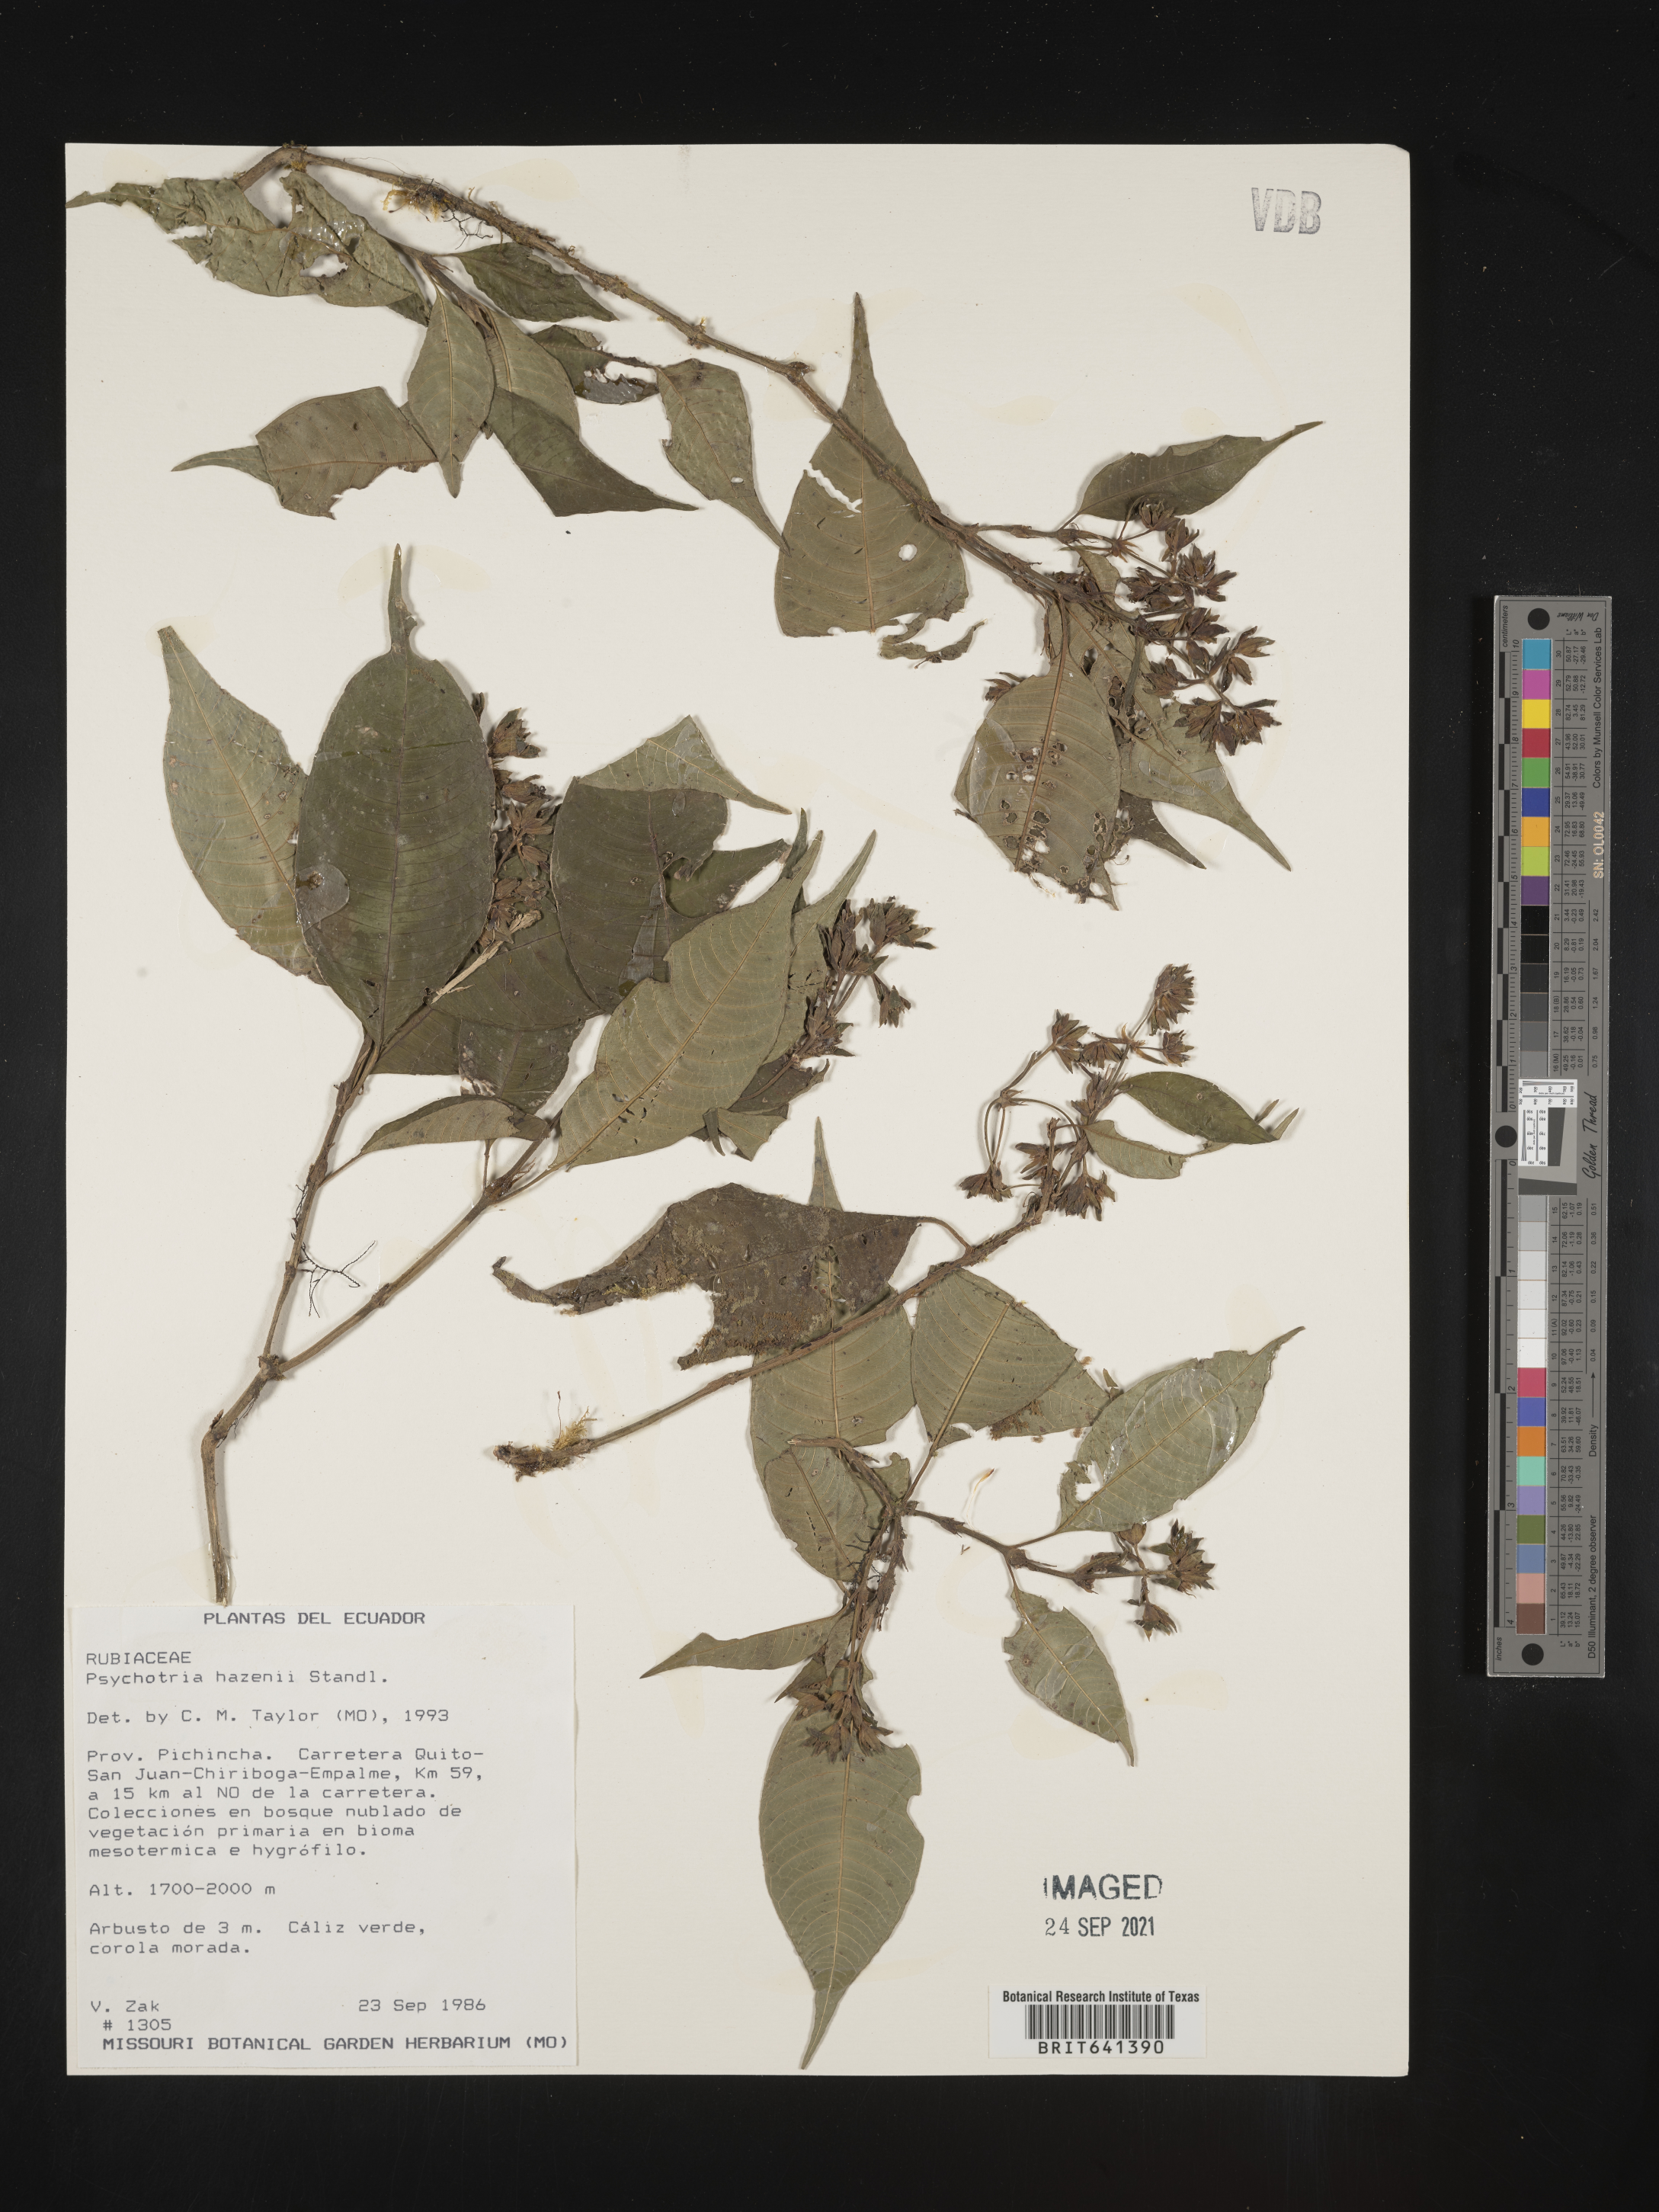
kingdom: Plantae
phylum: Tracheophyta
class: Magnoliopsida
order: Gentianales
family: Rubiaceae
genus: Psychotria
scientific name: Psychotria
